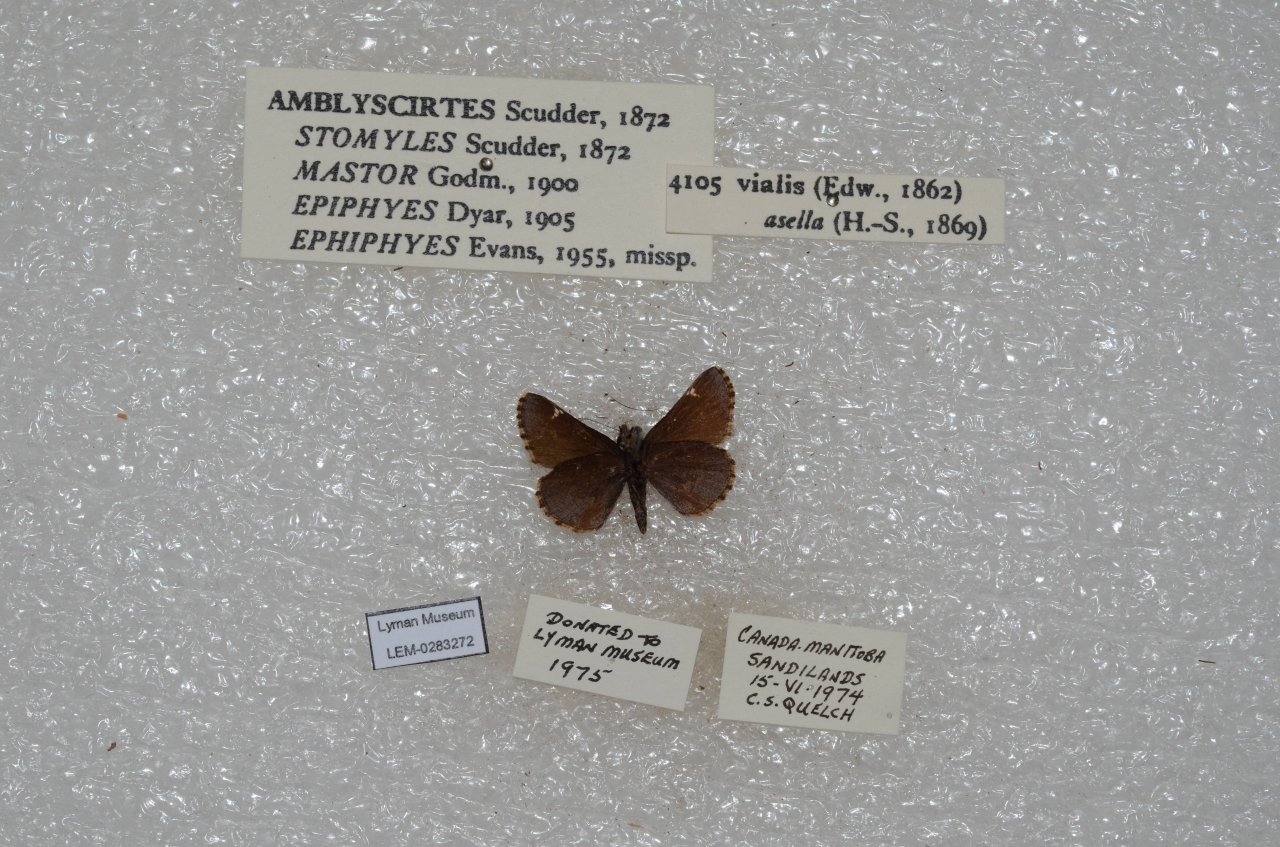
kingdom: Animalia
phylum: Arthropoda
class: Insecta
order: Lepidoptera
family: Hesperiidae
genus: Mastor
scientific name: Mastor vialis
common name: Common Roadside-Skipper
